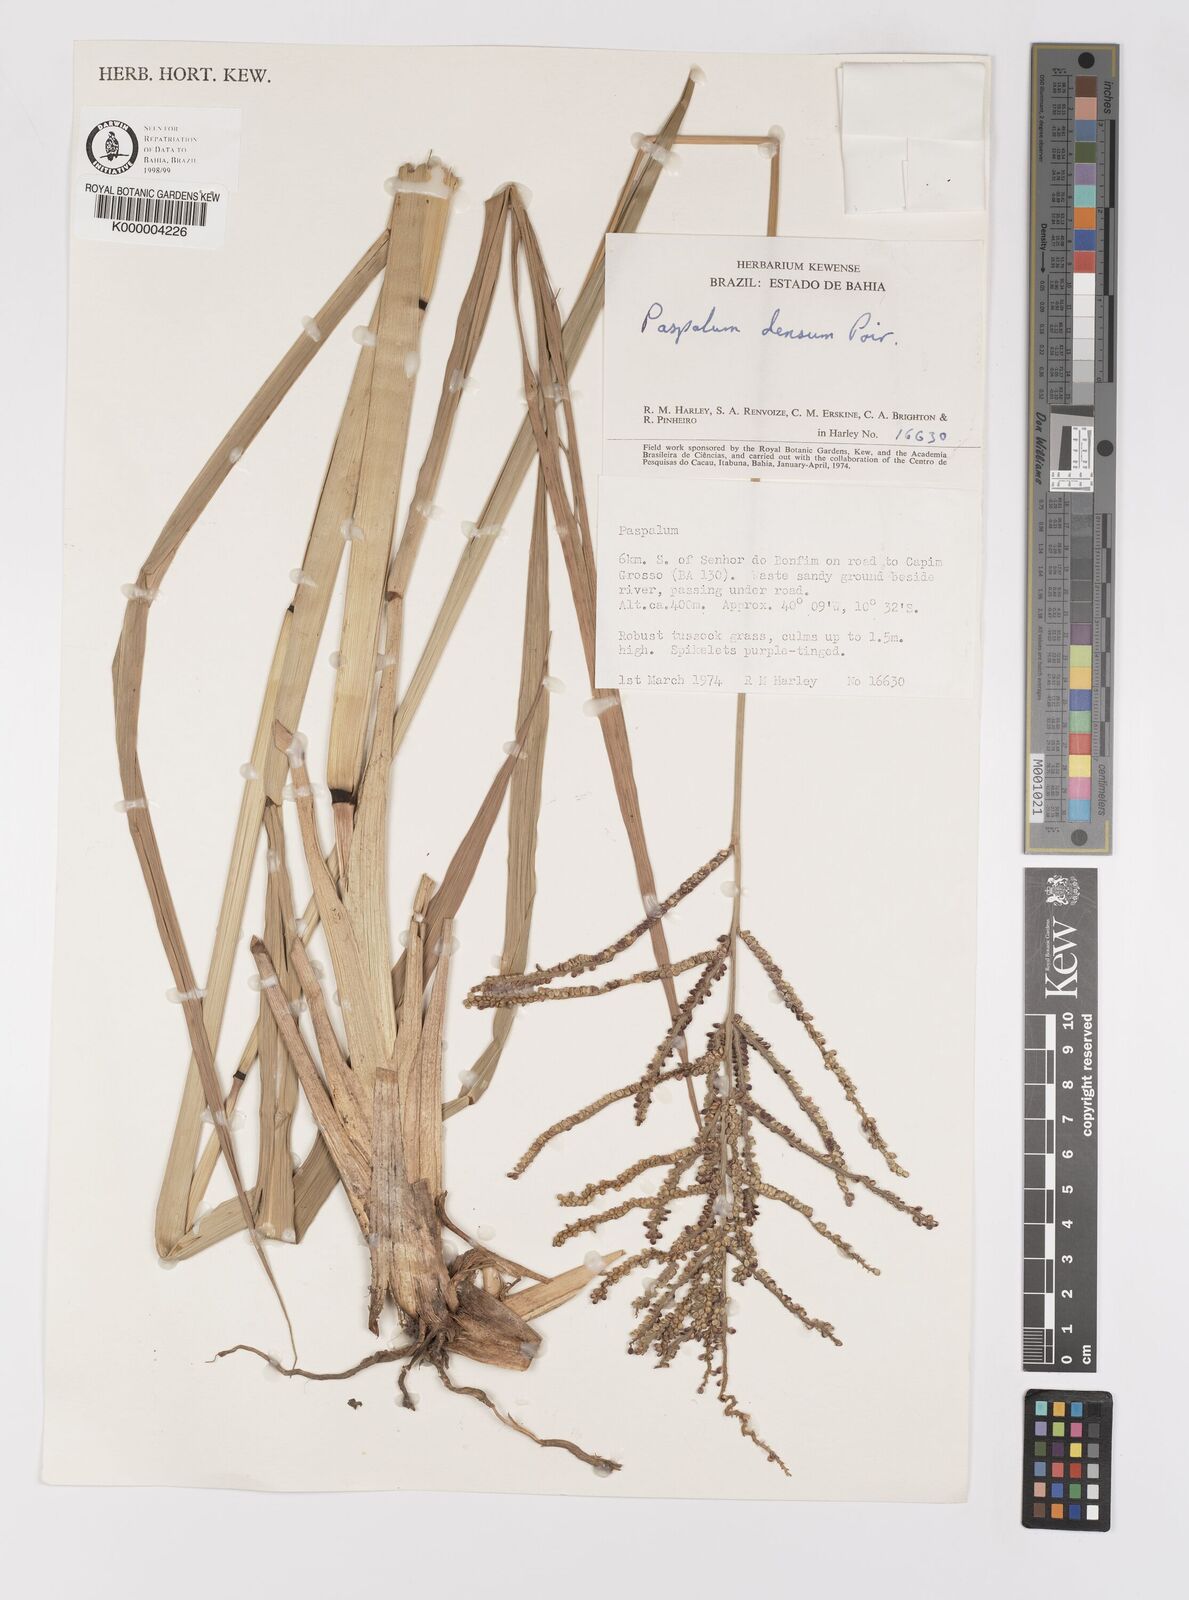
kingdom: Plantae
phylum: Tracheophyta
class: Liliopsida
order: Poales
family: Poaceae
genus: Paspalum
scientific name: Paspalum millegranum
